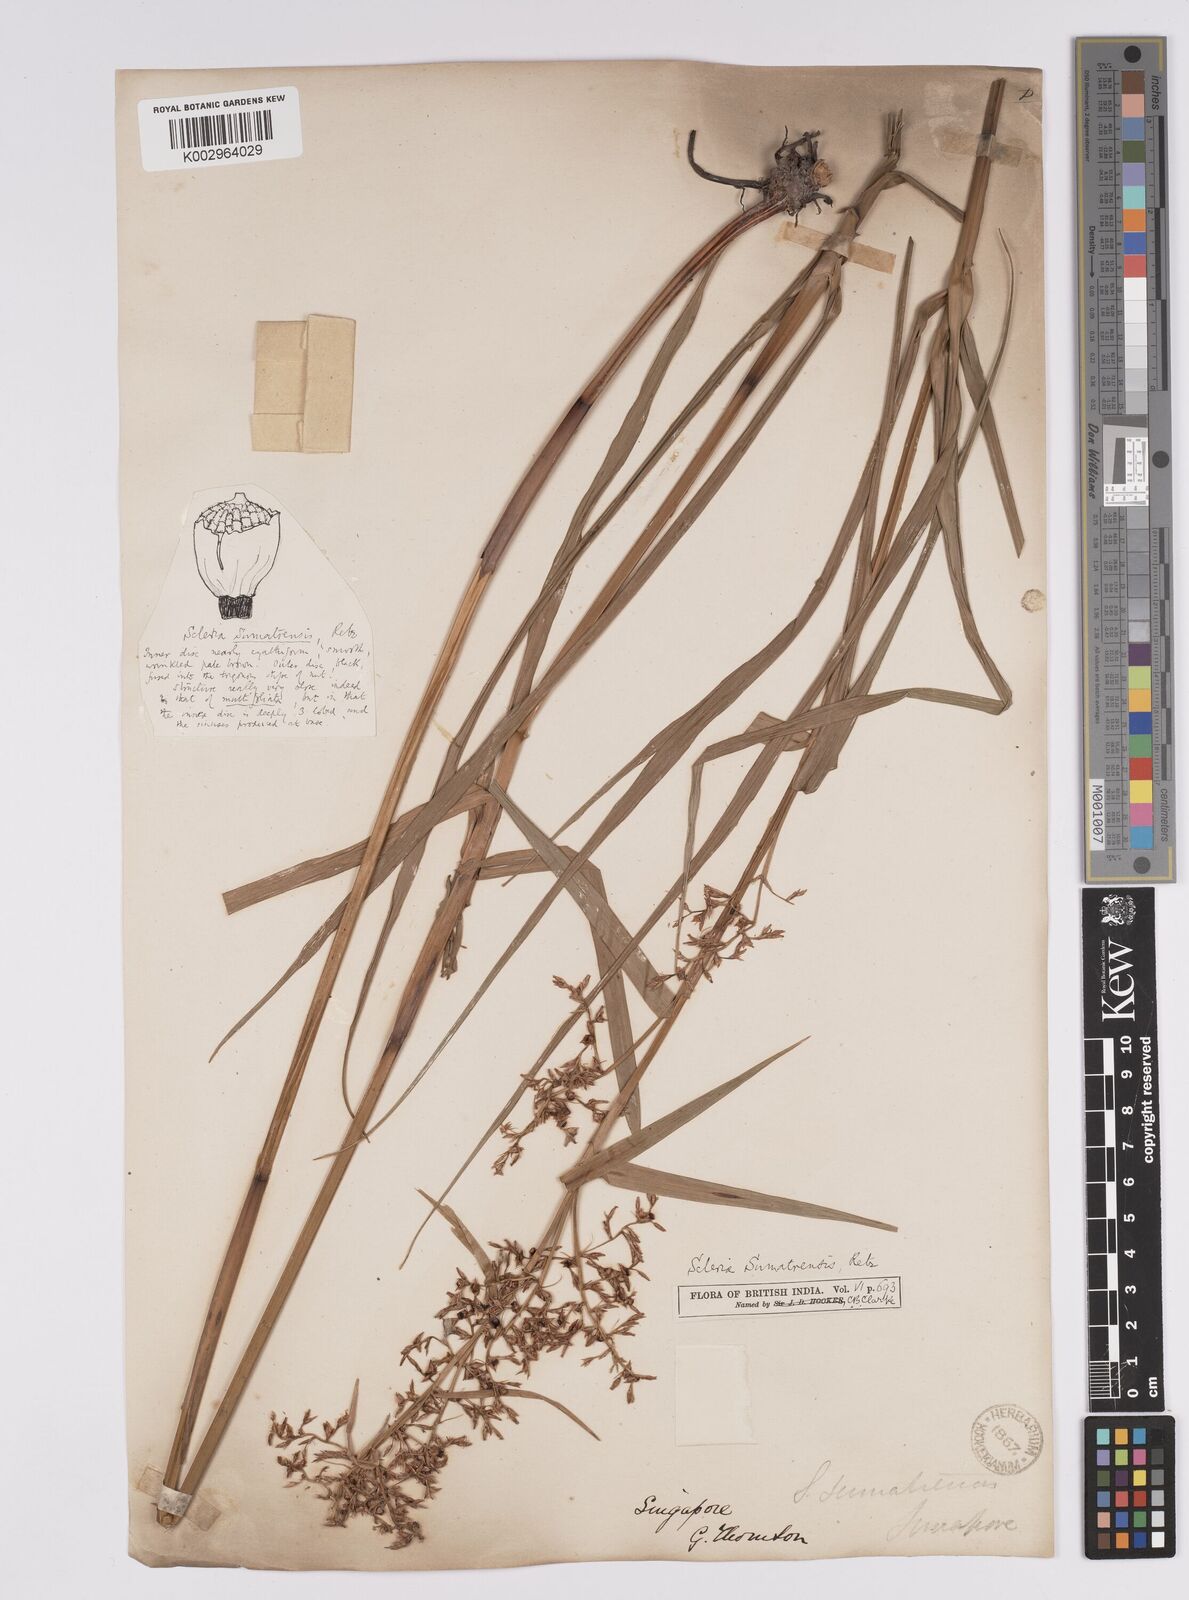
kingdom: Plantae
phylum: Tracheophyta
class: Liliopsida
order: Poales
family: Cyperaceae
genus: Scleria
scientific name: Scleria sumatrensis
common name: Sumatran scleria
